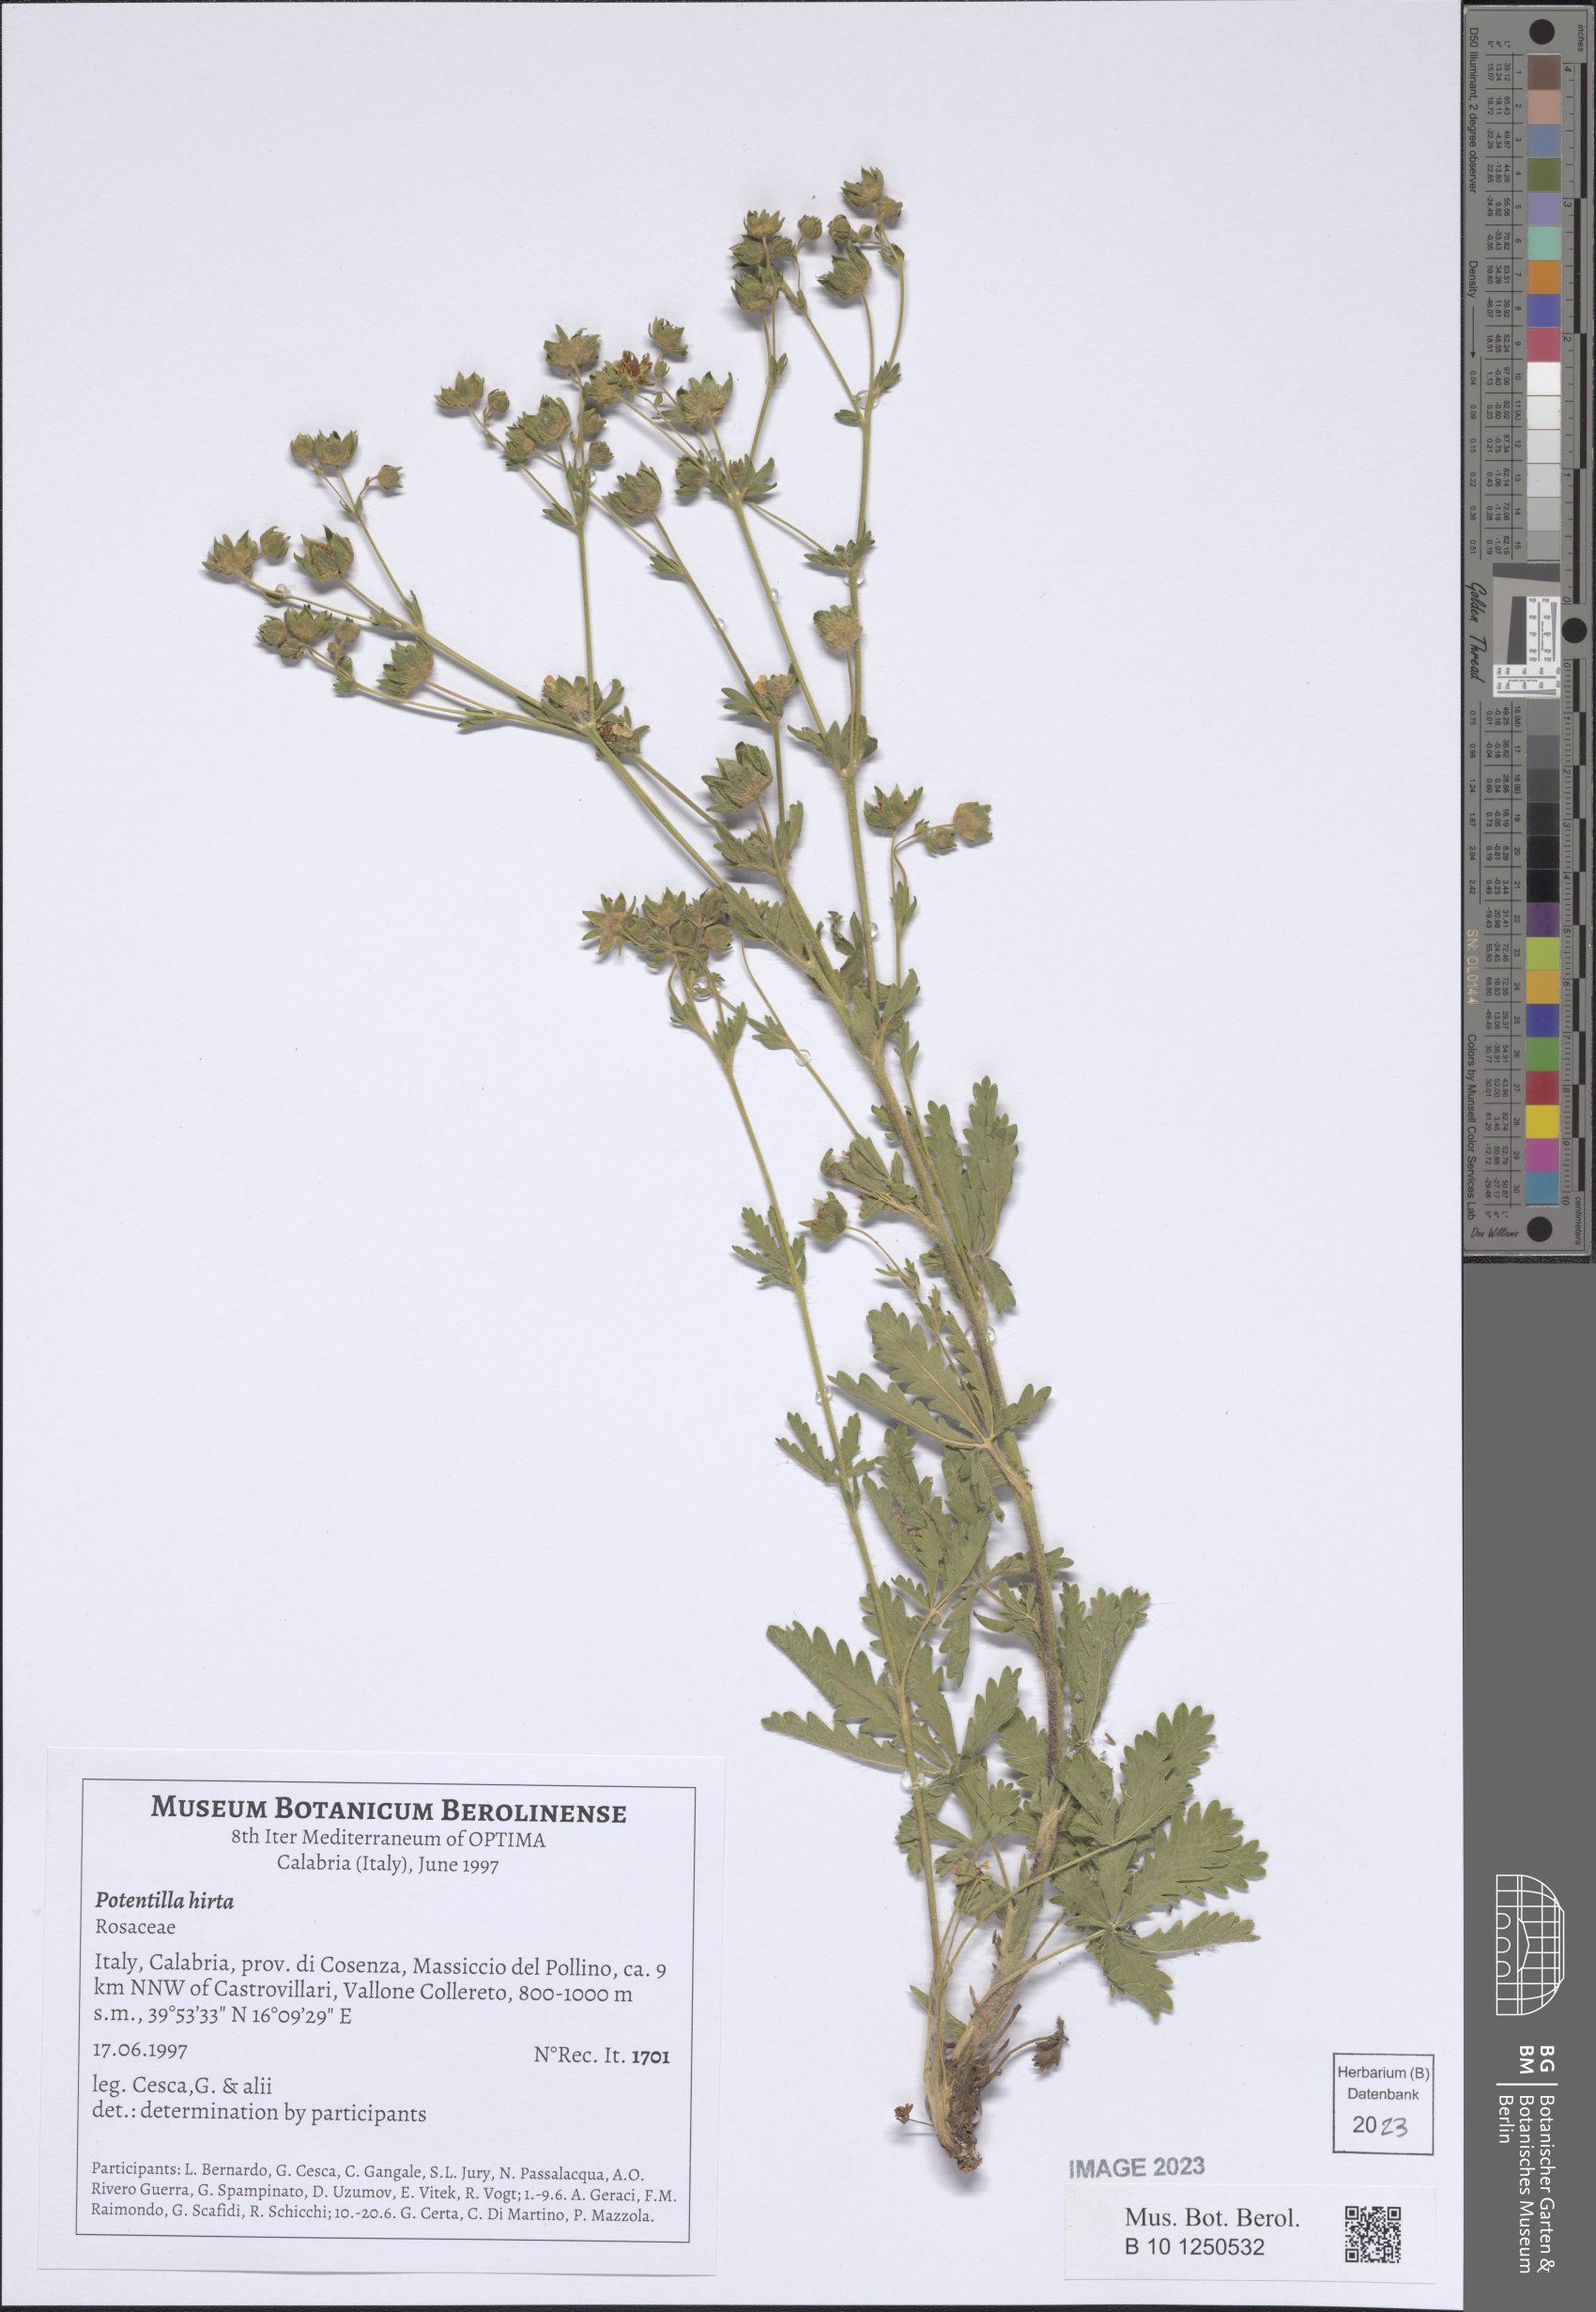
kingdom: Plantae
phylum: Tracheophyta
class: Magnoliopsida
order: Rosales
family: Rosaceae
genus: Potentilla
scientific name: Potentilla hirta
